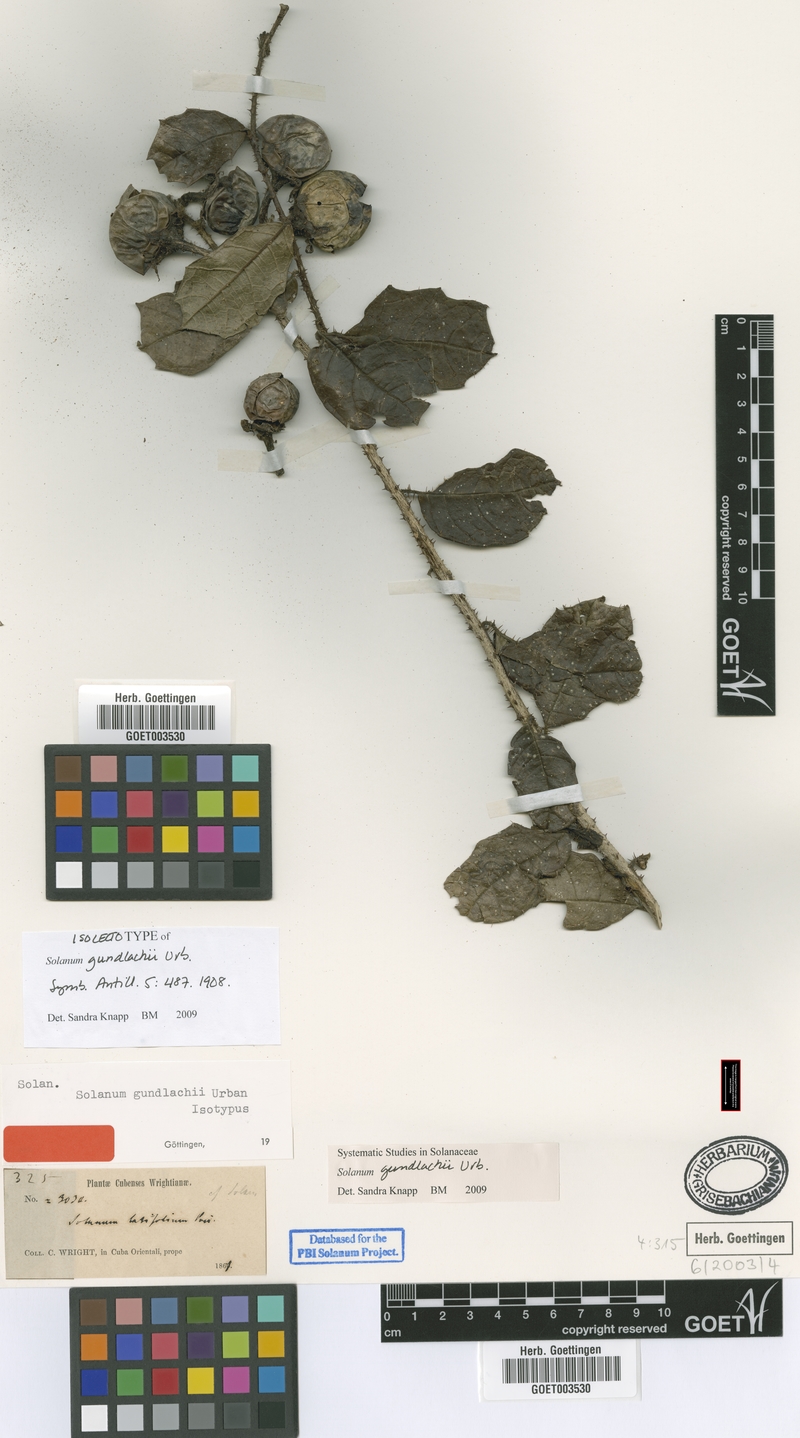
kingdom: Plantae
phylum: Tracheophyta
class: Magnoliopsida
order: Solanales
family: Solanaceae
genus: Solanum
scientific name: Solanum gundlachii
